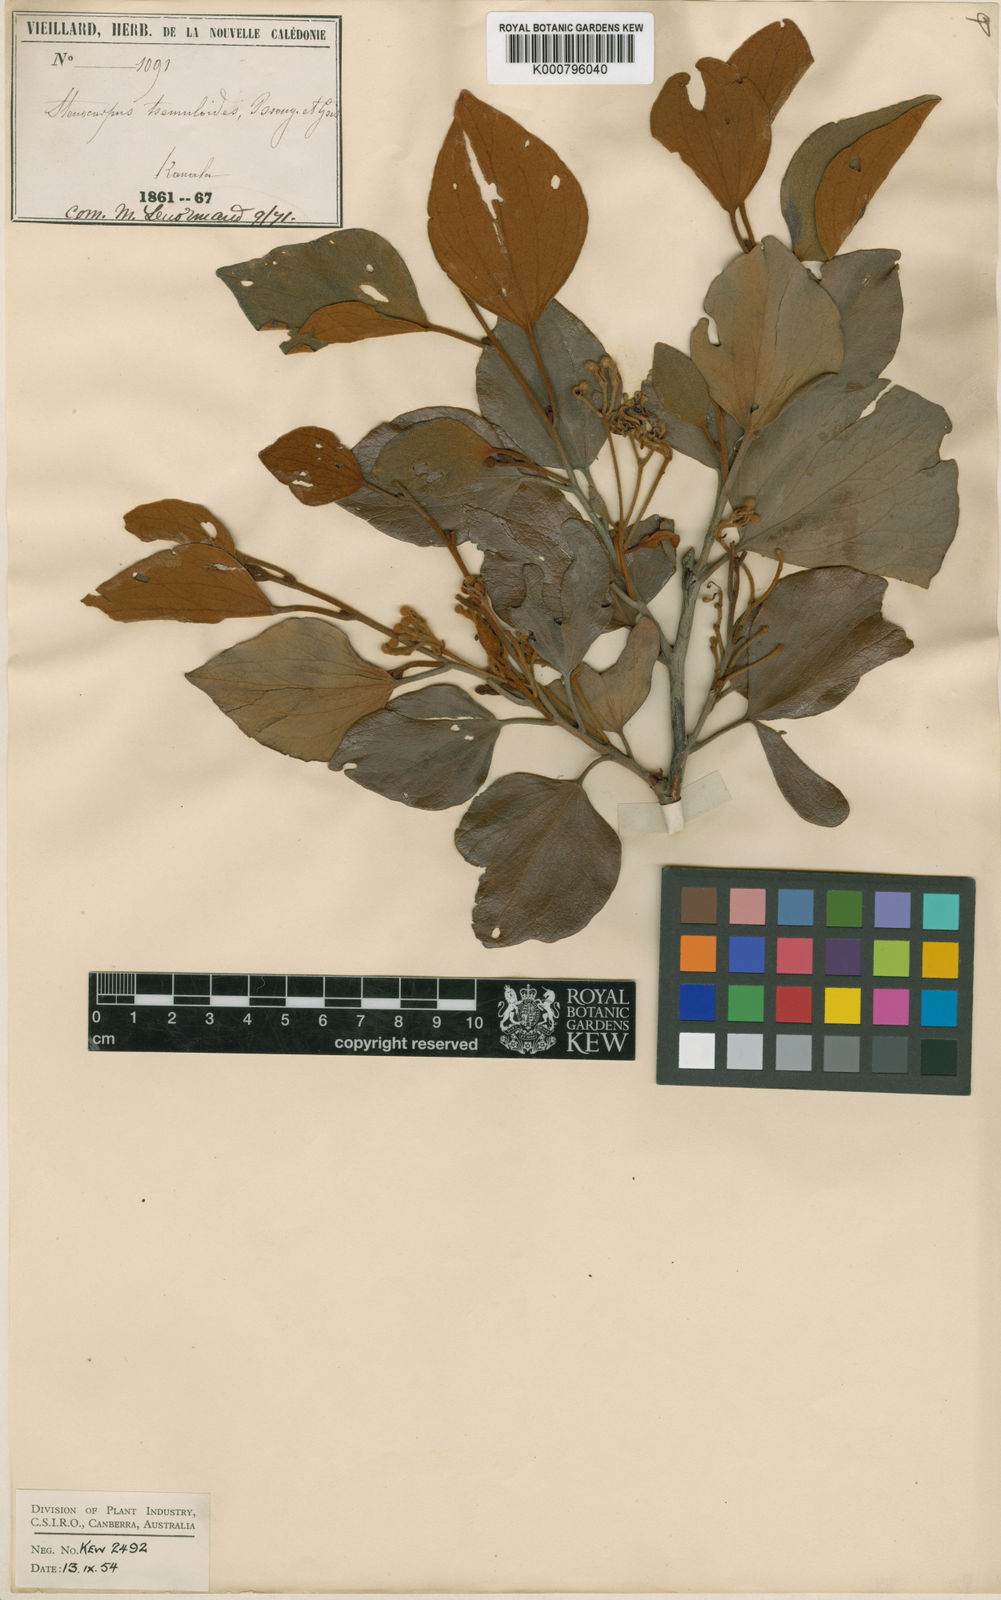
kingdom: Plantae
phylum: Tracheophyta
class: Magnoliopsida
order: Proteales
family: Proteaceae
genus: Stenocarpus
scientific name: Stenocarpus tremuloides
